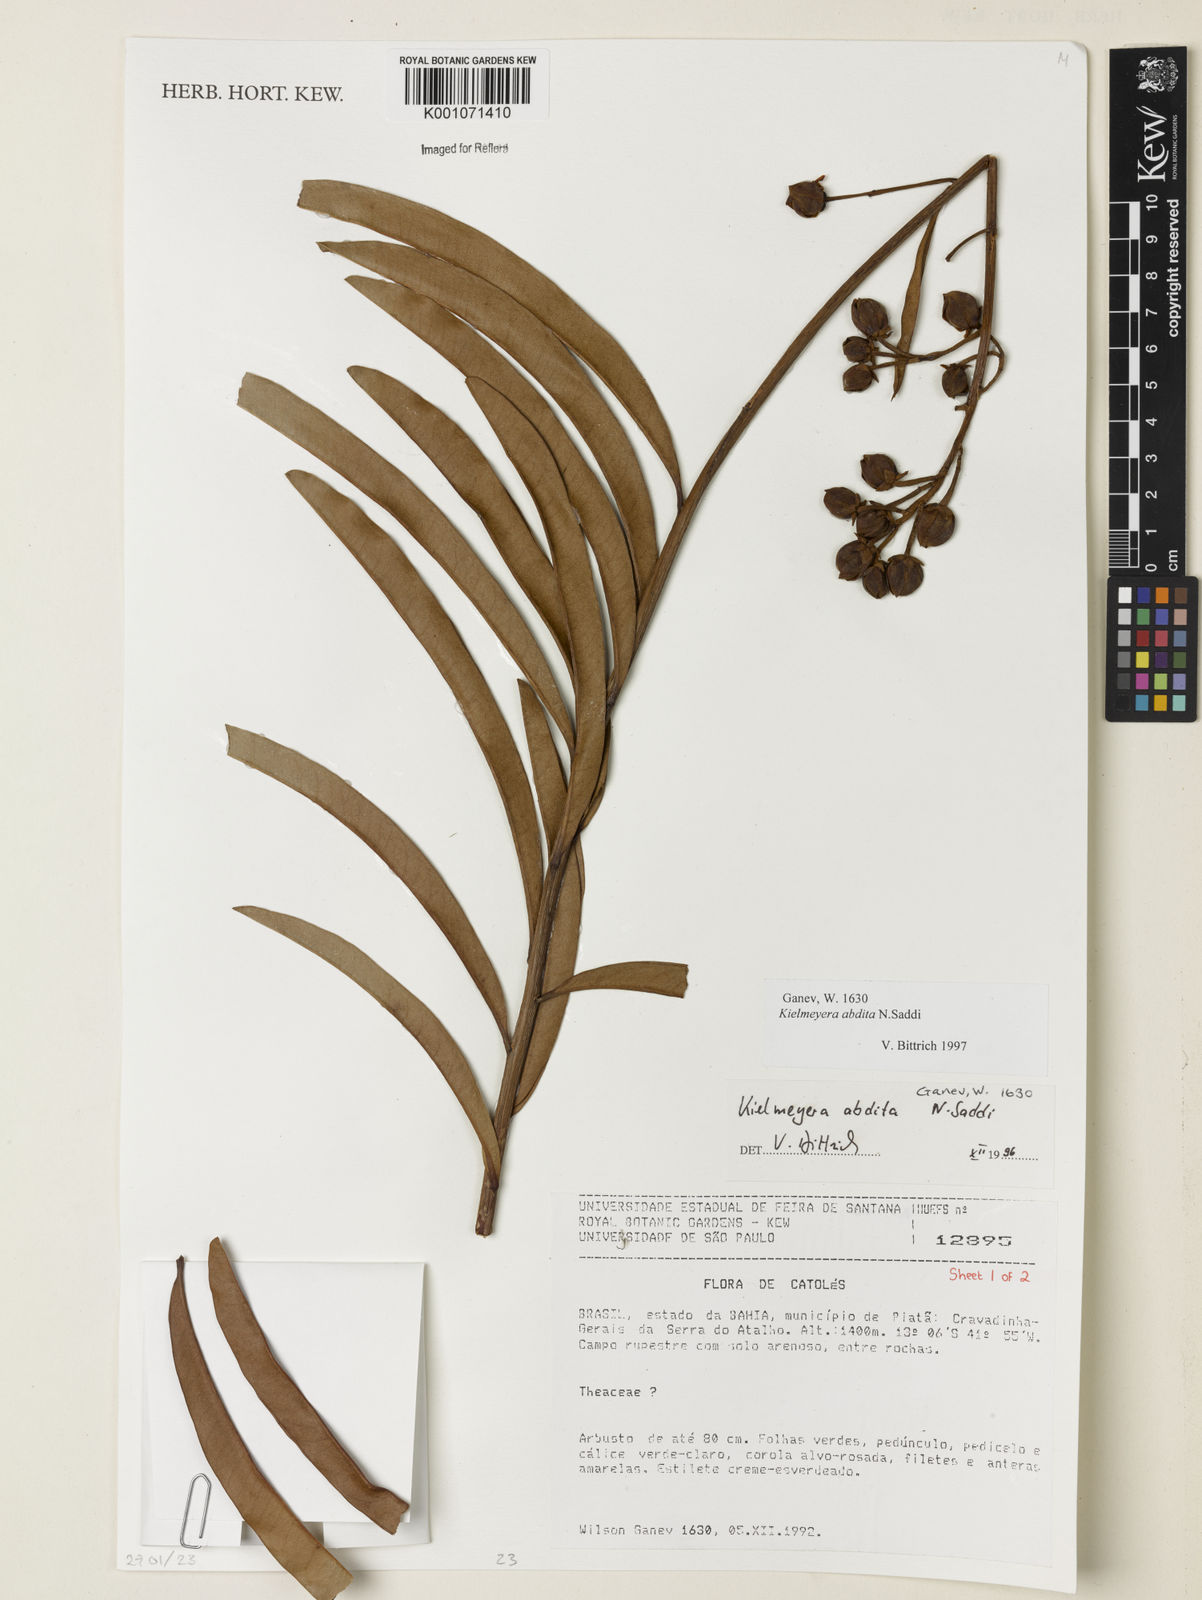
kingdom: Plantae
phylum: Tracheophyta
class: Magnoliopsida
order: Malpighiales
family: Calophyllaceae
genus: Kielmeyera
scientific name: Kielmeyera abdita
